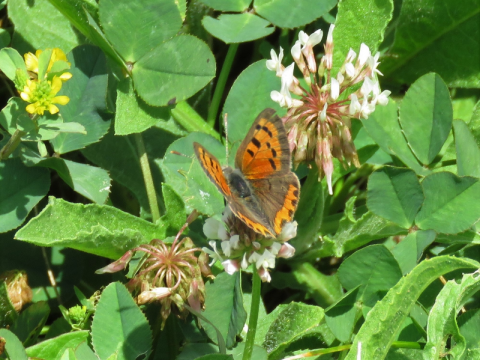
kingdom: Animalia
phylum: Arthropoda
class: Insecta
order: Lepidoptera
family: Lycaenidae
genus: Lycaena
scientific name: Lycaena phlaeas
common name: American Copper
